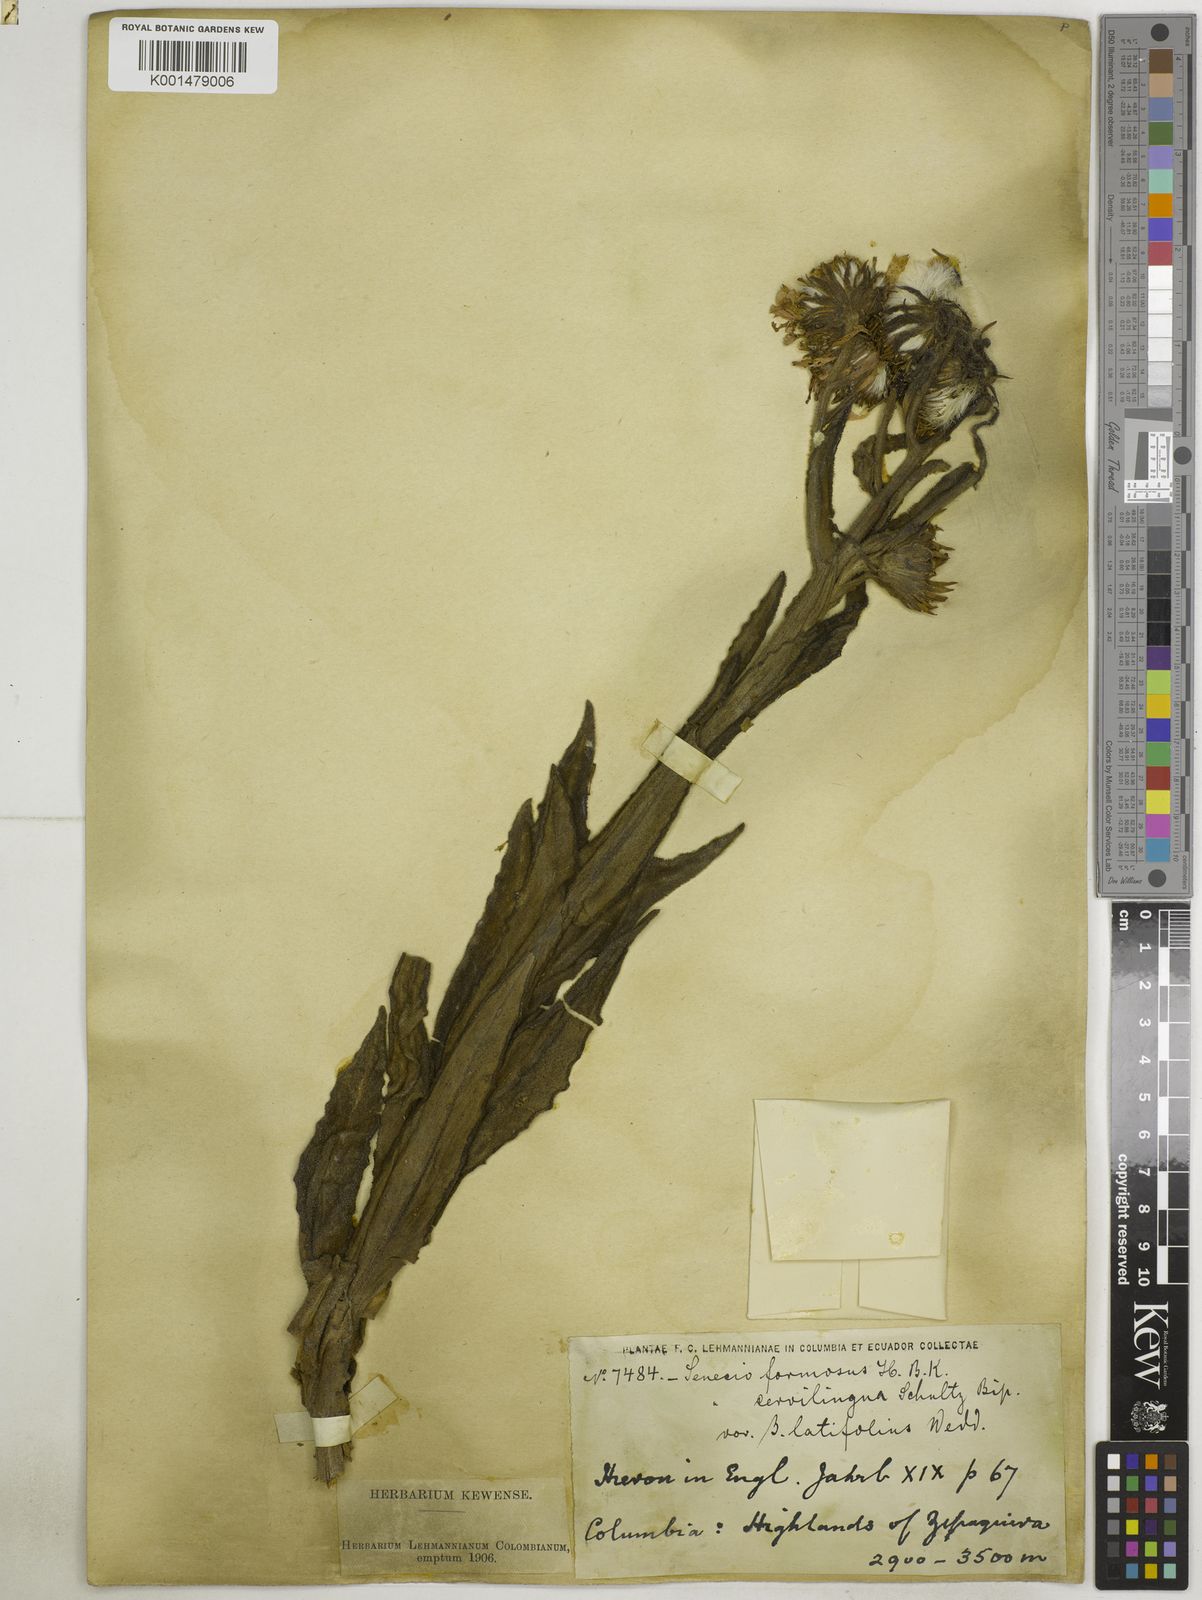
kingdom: Plantae
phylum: Tracheophyta
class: Magnoliopsida
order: Asterales
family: Asteraceae
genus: Senecio
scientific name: Senecio formosus
